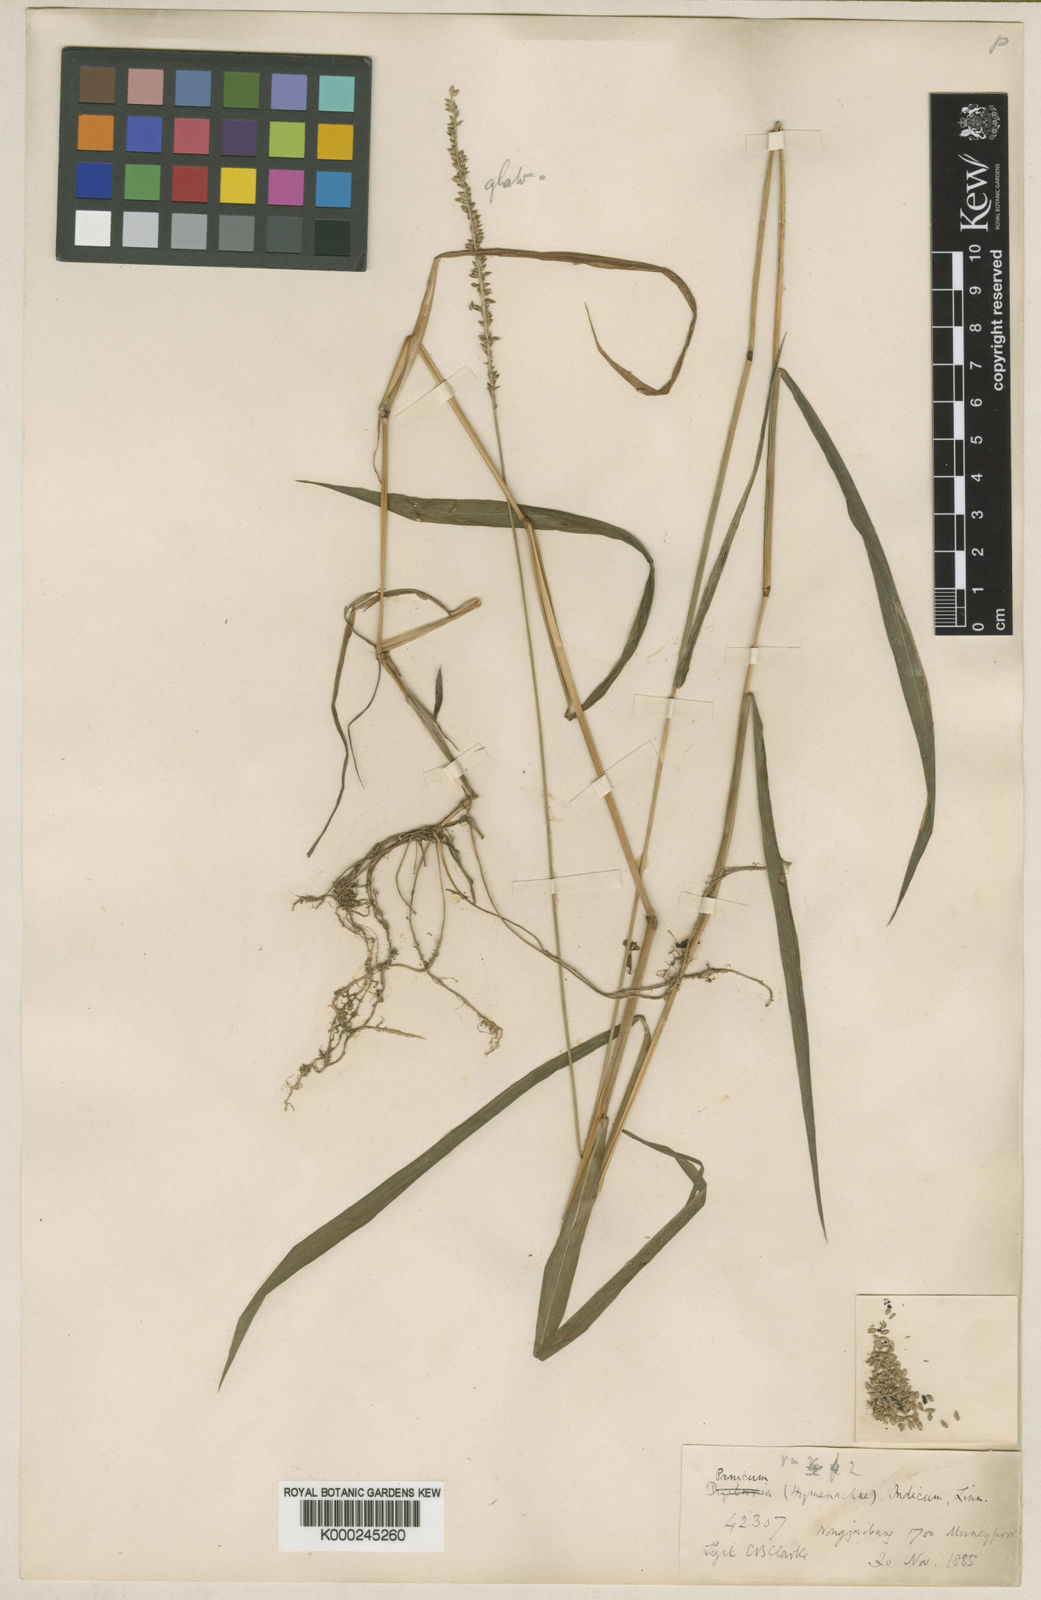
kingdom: Plantae
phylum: Tracheophyta
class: Liliopsida
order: Poales
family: Poaceae
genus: Sacciolepis
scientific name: Sacciolepis indica
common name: Glenwoodgrass
